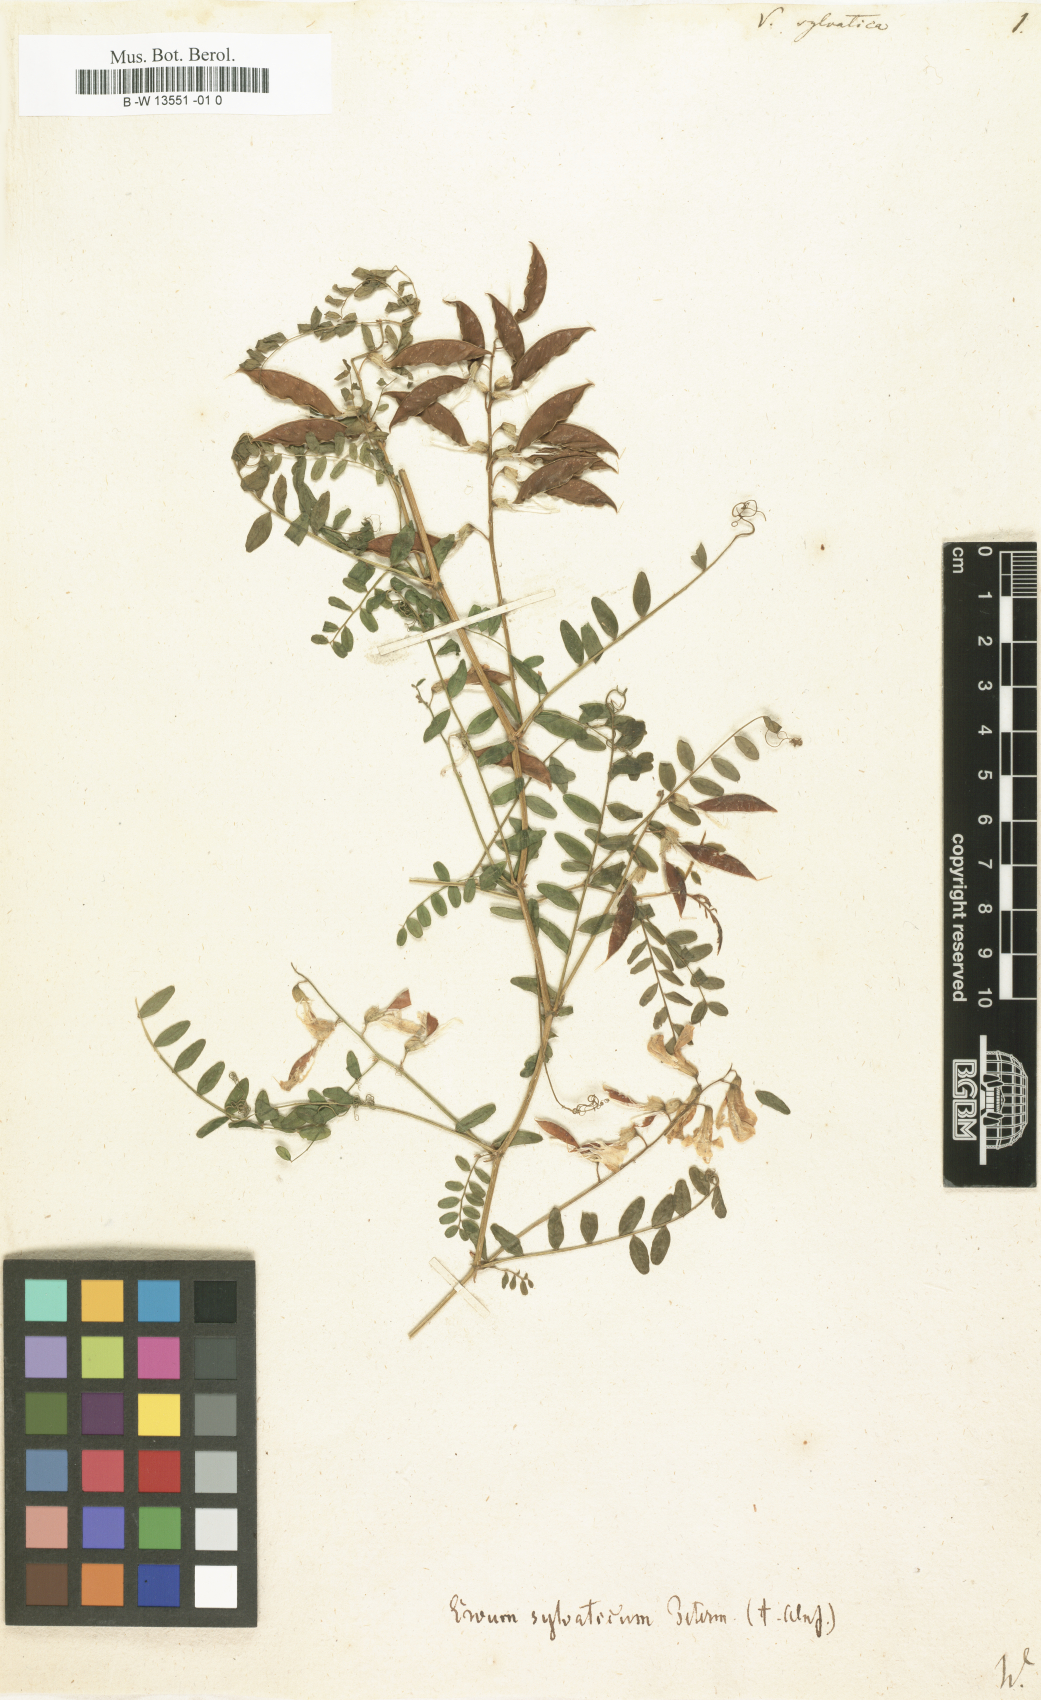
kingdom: Plantae
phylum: Tracheophyta
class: Magnoliopsida
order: Fabales
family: Fabaceae
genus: Vicia
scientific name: Vicia sylvatica
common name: Wood vetch
